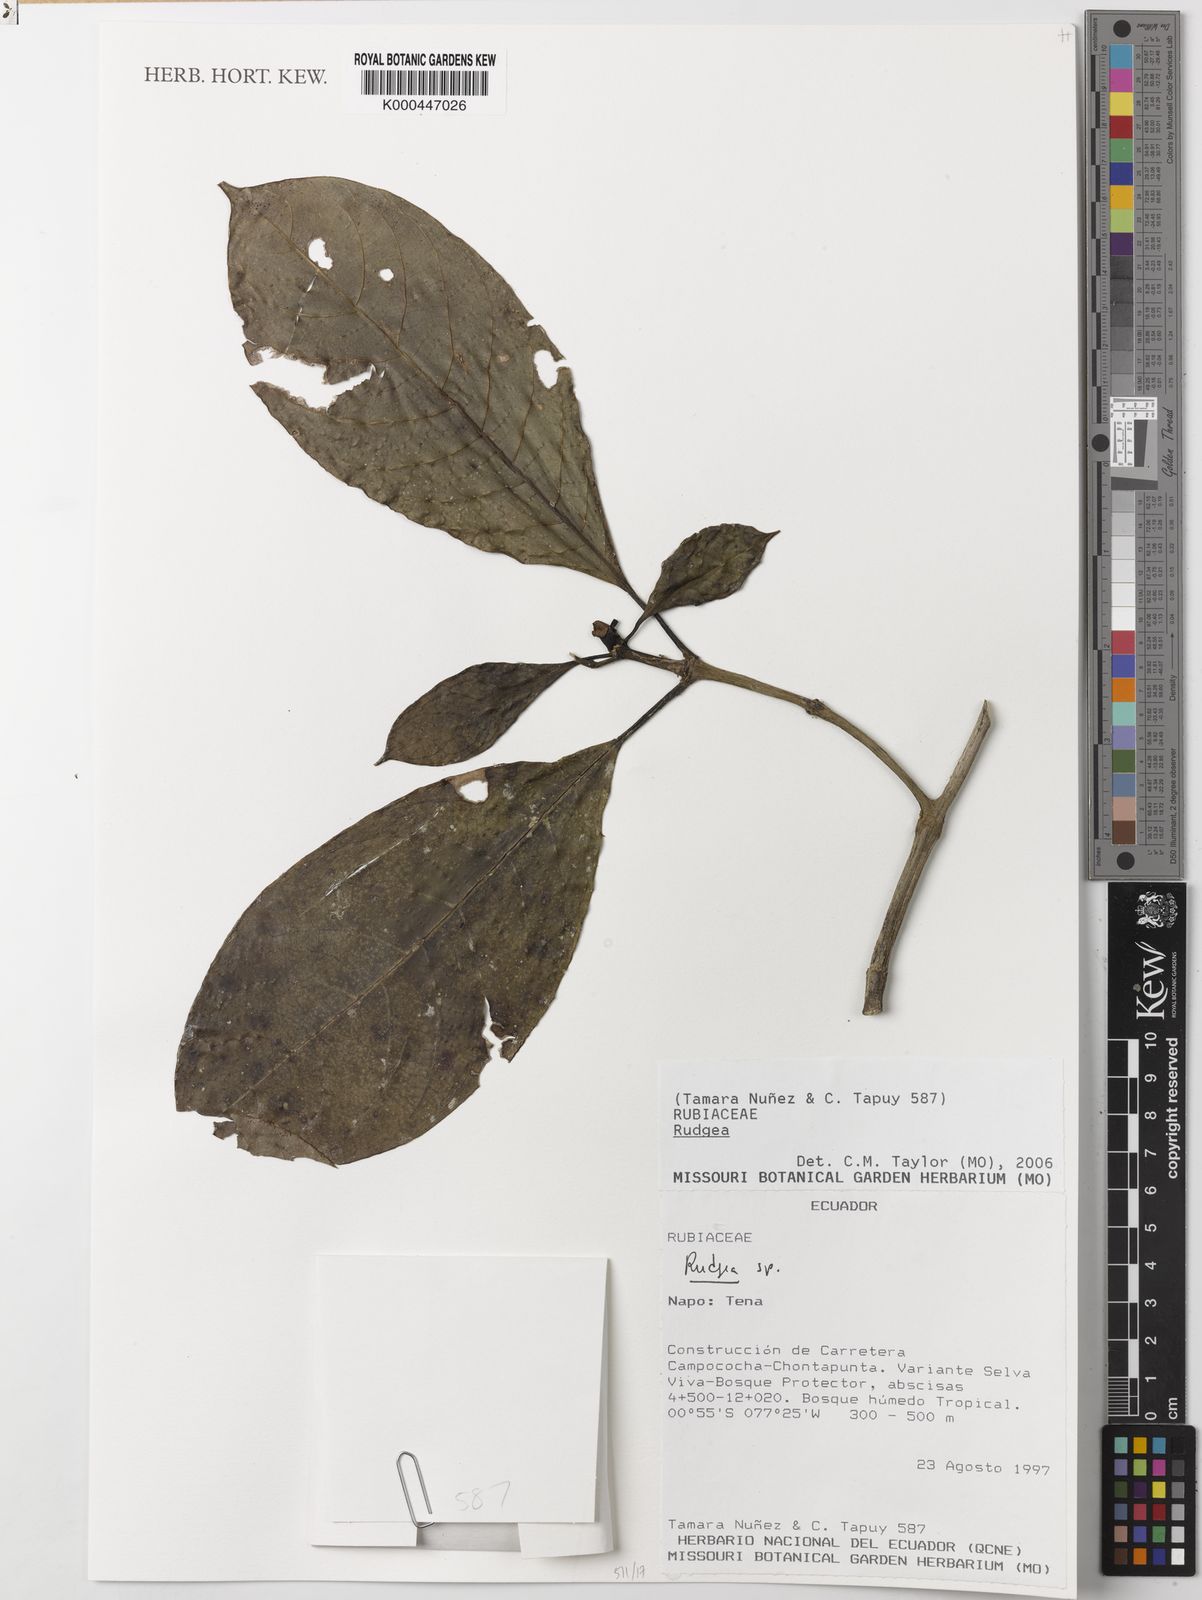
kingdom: Plantae
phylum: Tracheophyta
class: Magnoliopsida
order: Gentianales
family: Rubiaceae
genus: Rudgea
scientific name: Rudgea
